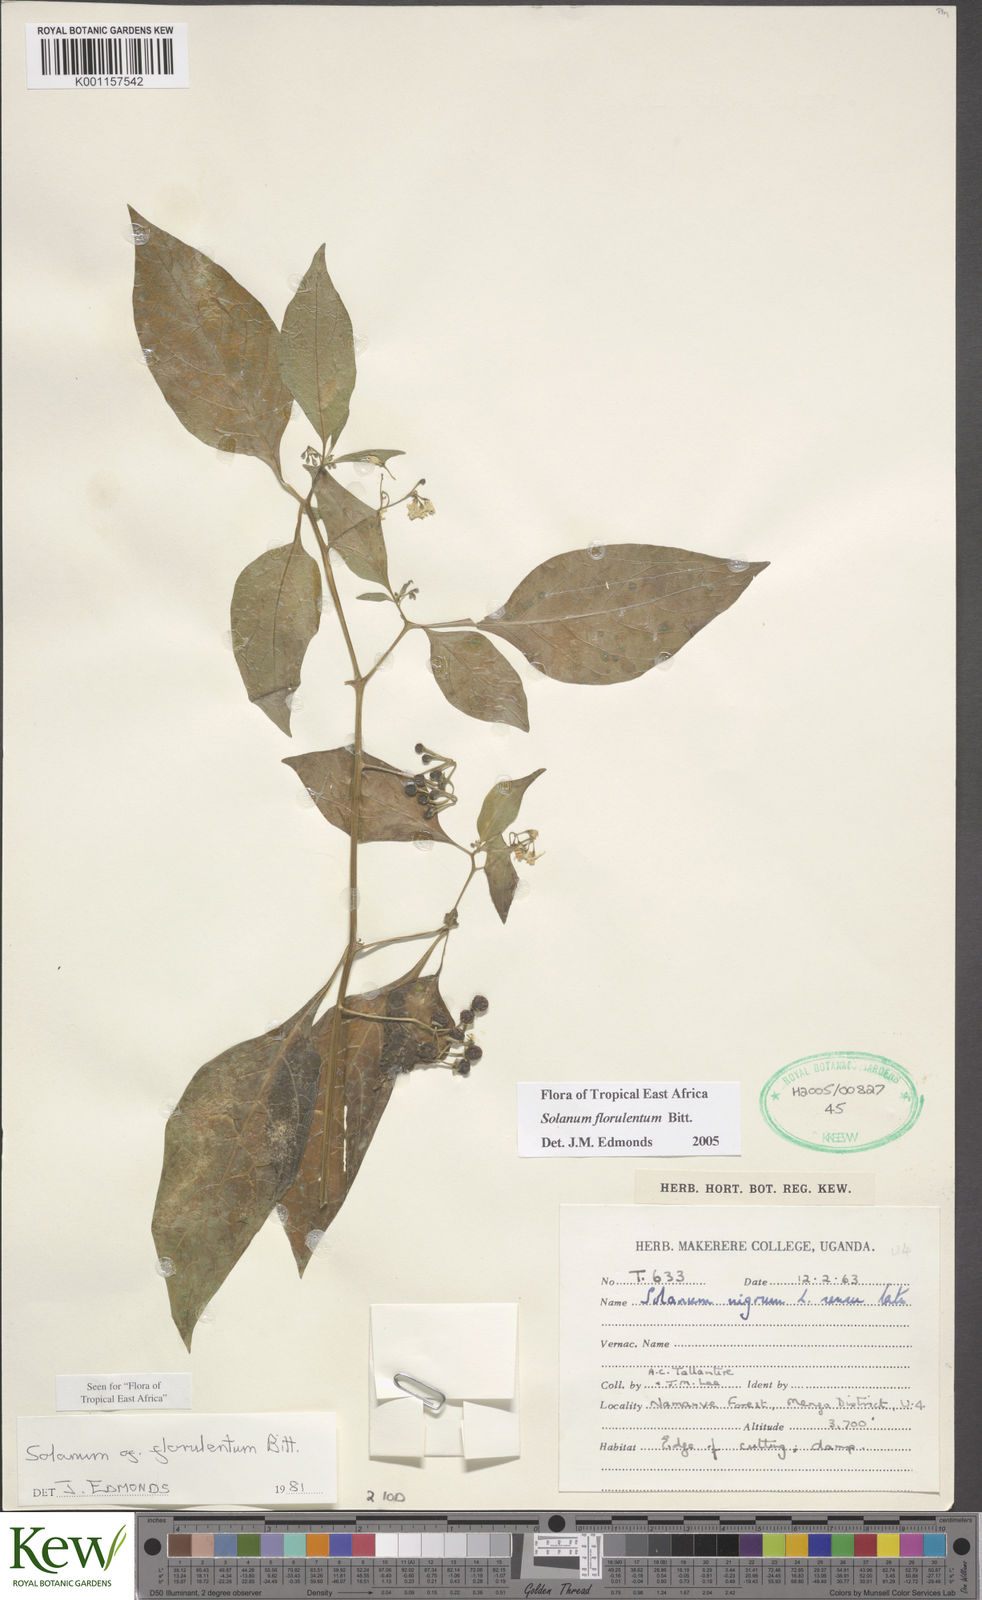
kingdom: Plantae
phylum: Tracheophyta
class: Magnoliopsida
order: Solanales
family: Solanaceae
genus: Solanum
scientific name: Solanum tarderemotum
